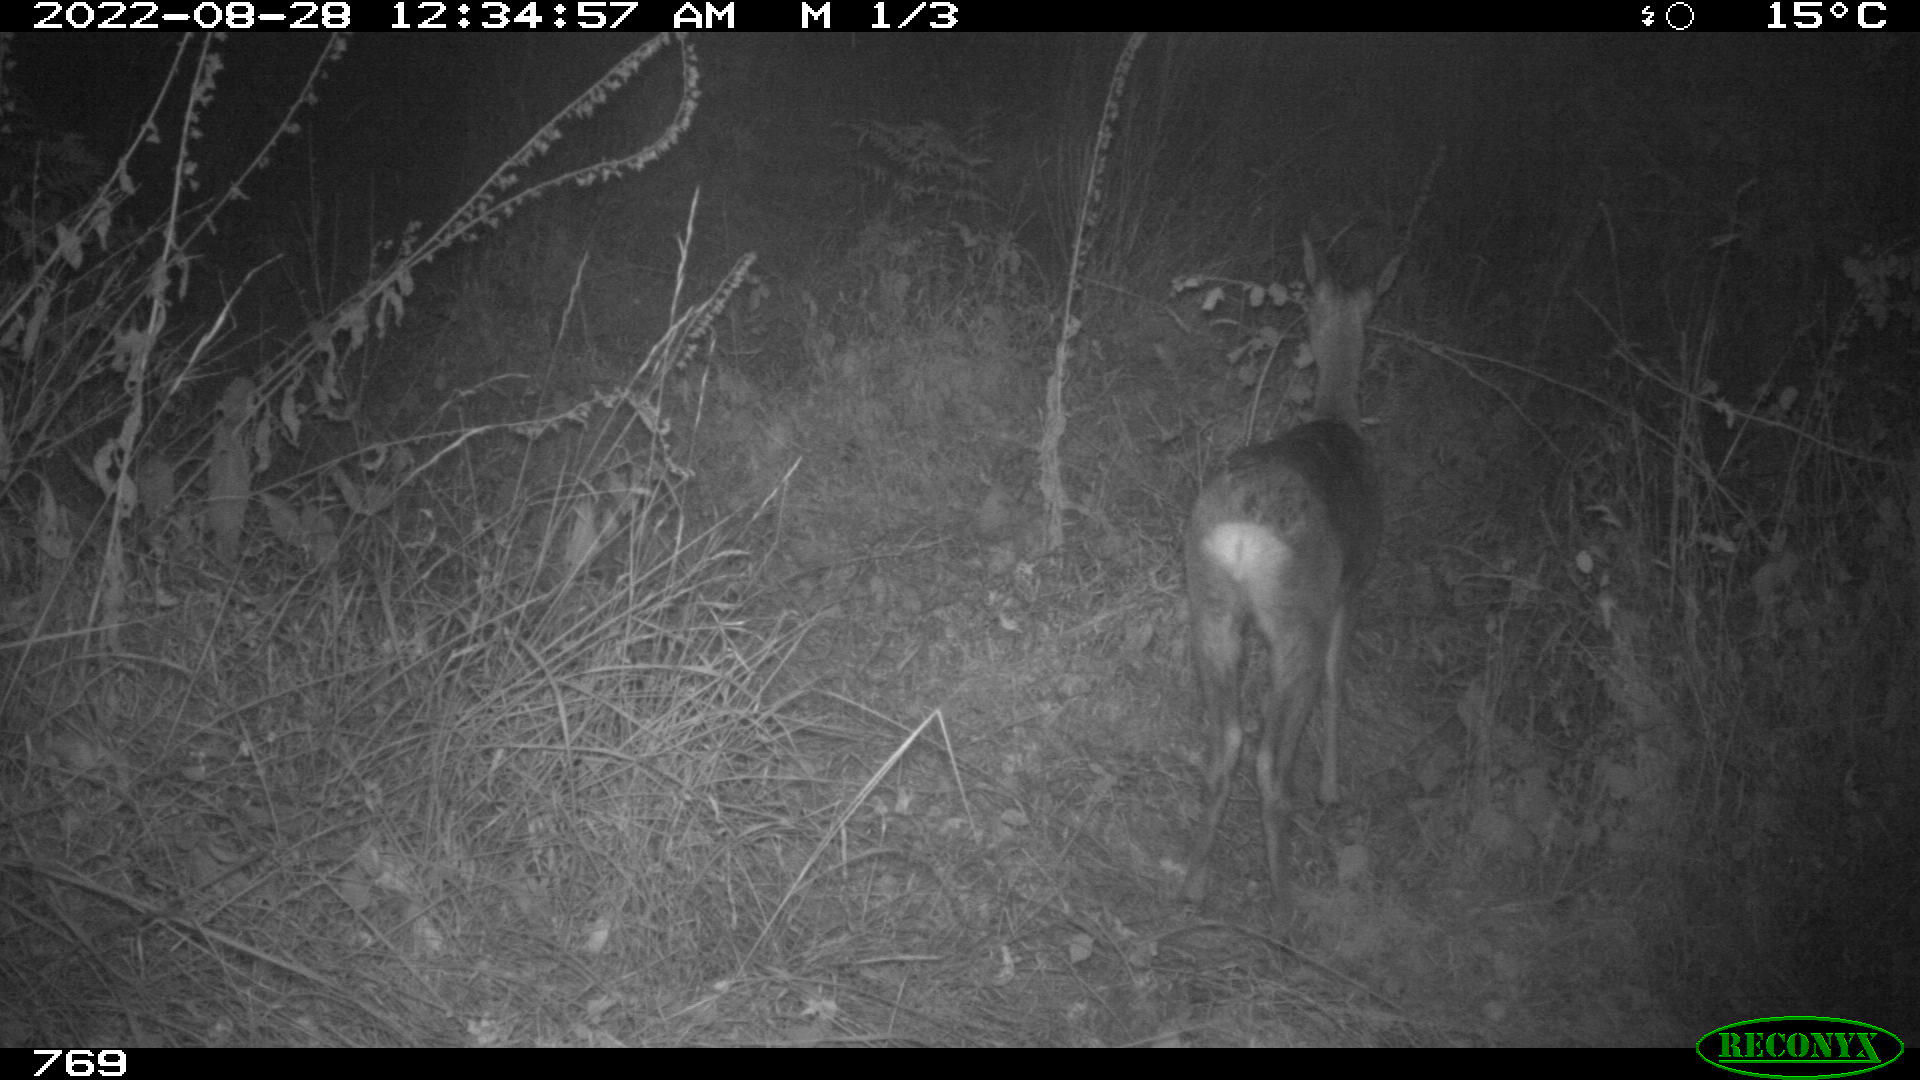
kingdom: Animalia
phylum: Chordata
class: Mammalia
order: Artiodactyla
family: Cervidae
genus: Capreolus
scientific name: Capreolus capreolus
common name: Western roe deer
